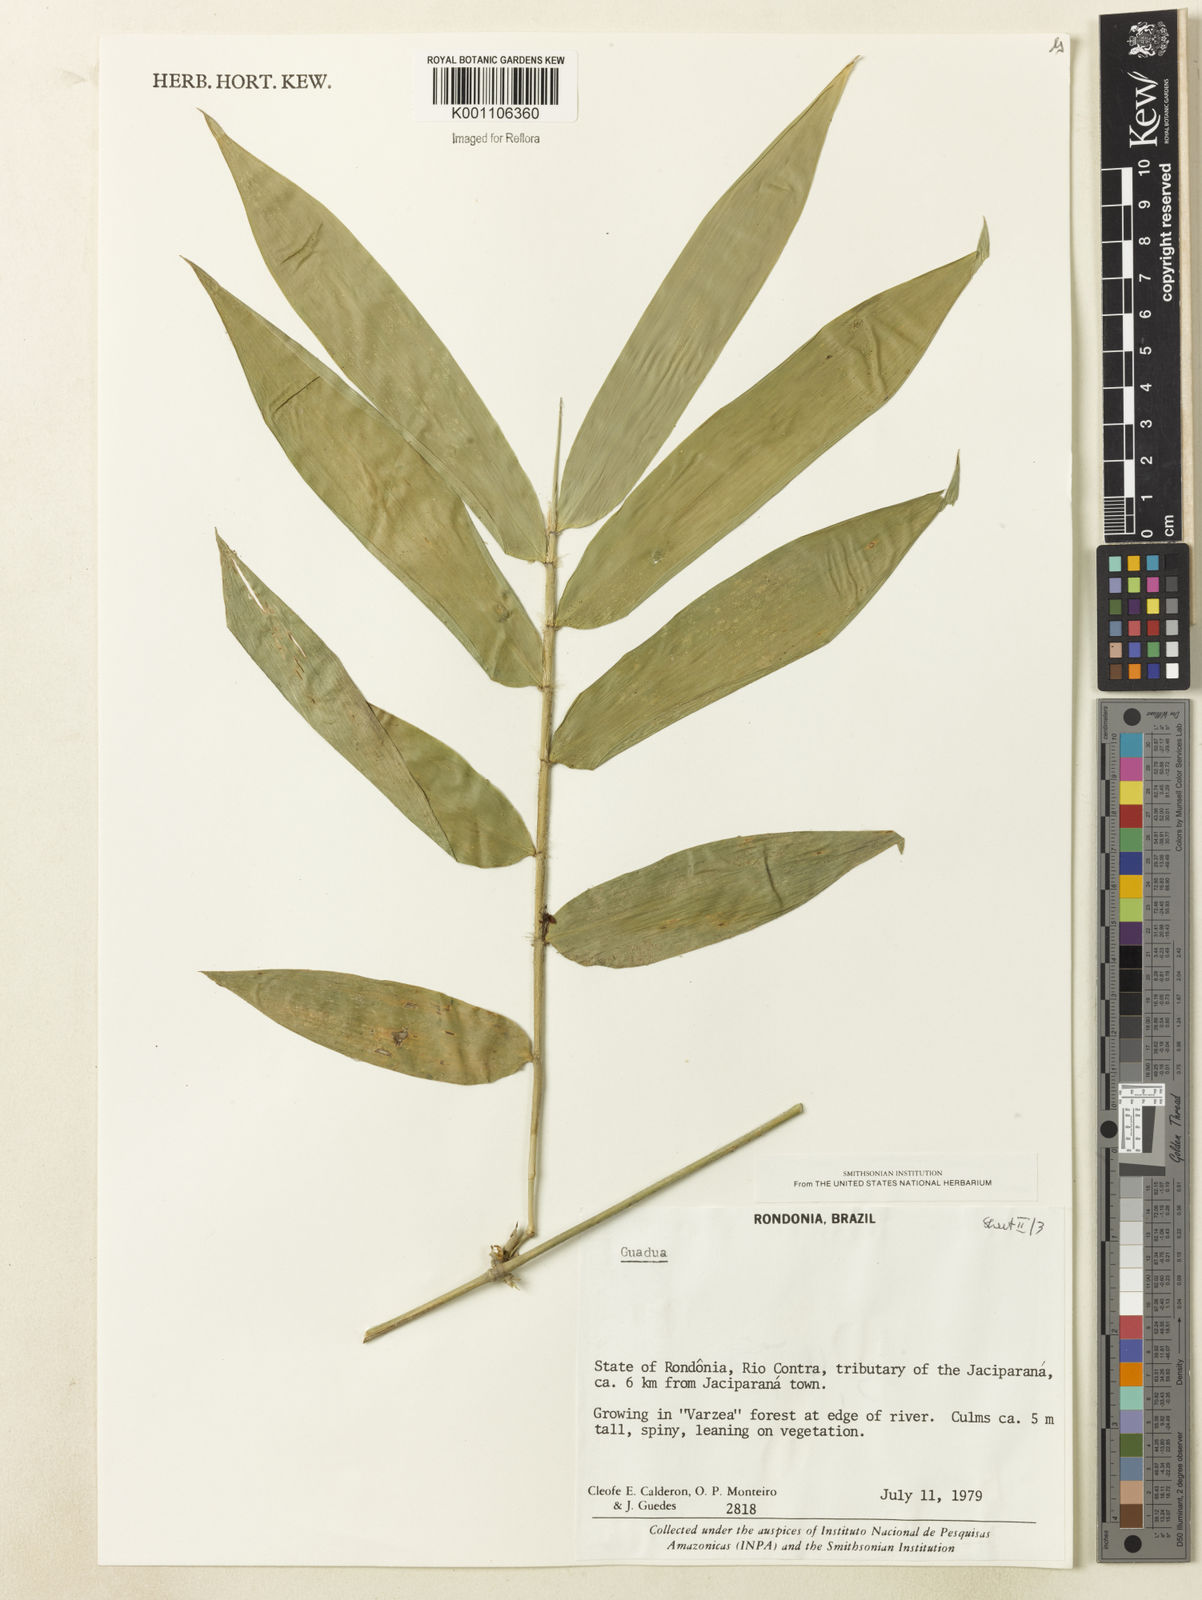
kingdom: Plantae
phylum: Tracheophyta
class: Liliopsida
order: Poales
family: Poaceae
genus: Guadua
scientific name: Guadua
